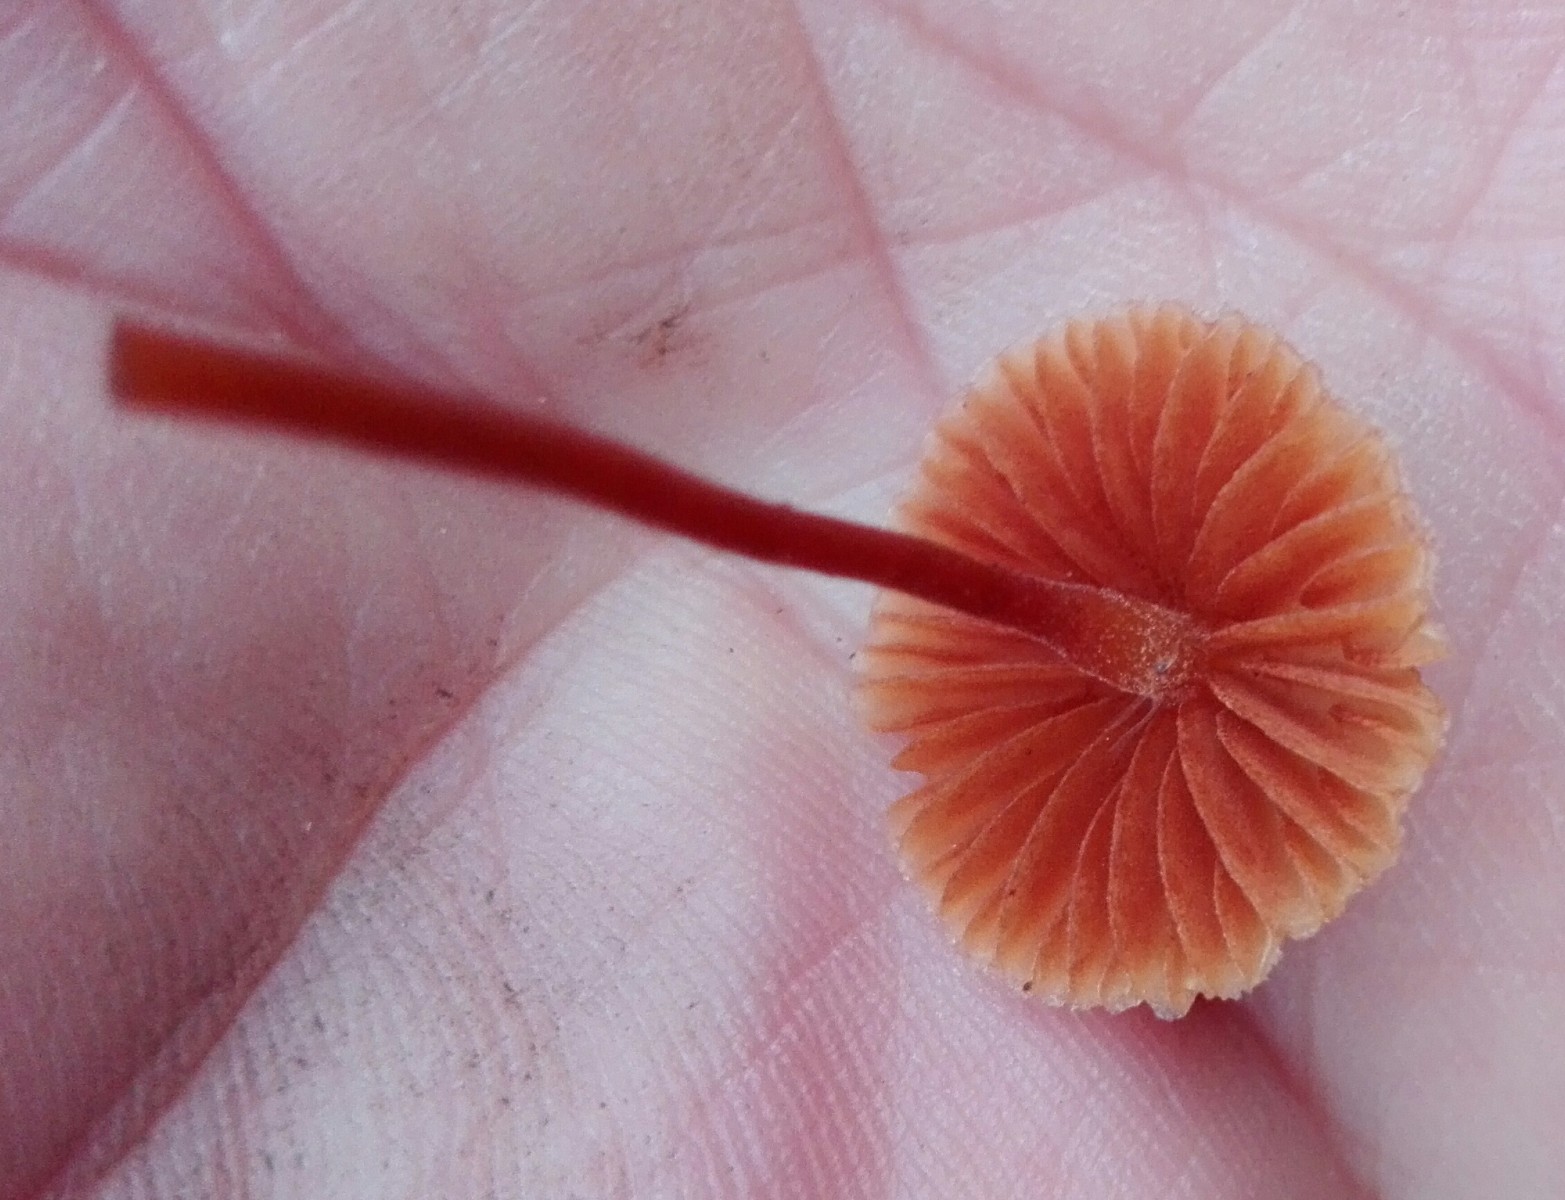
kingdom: Fungi
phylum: Basidiomycota
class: Agaricomycetes
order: Agaricales
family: Hymenogastraceae
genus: Galerina
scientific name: Galerina
